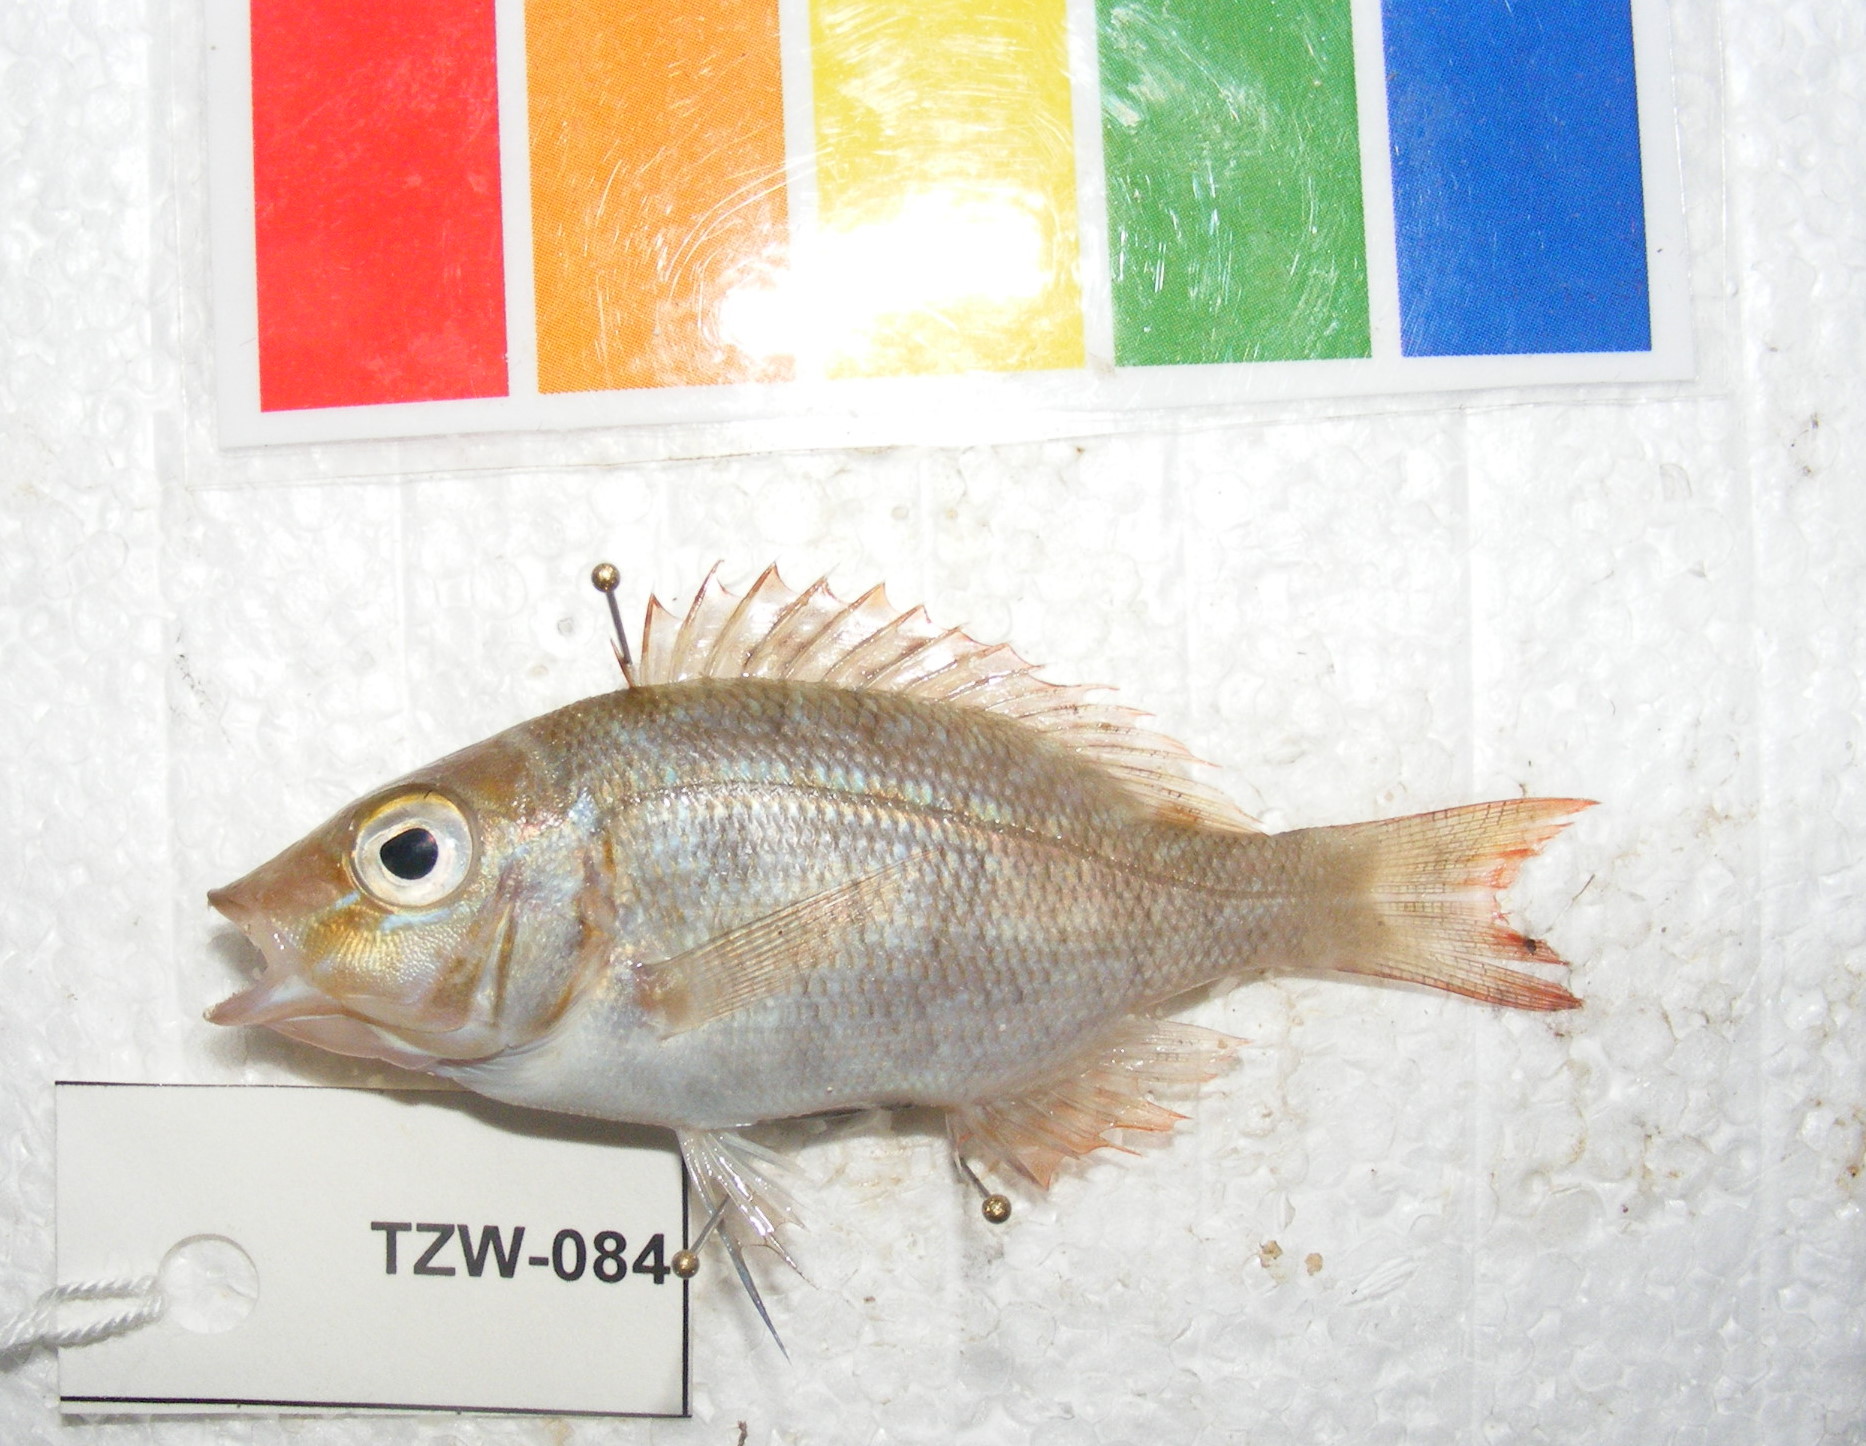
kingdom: Animalia
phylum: Chordata
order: Perciformes
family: Lethrinidae
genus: Lethrinus
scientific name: Lethrinus nebulosus
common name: Spangled emperor
